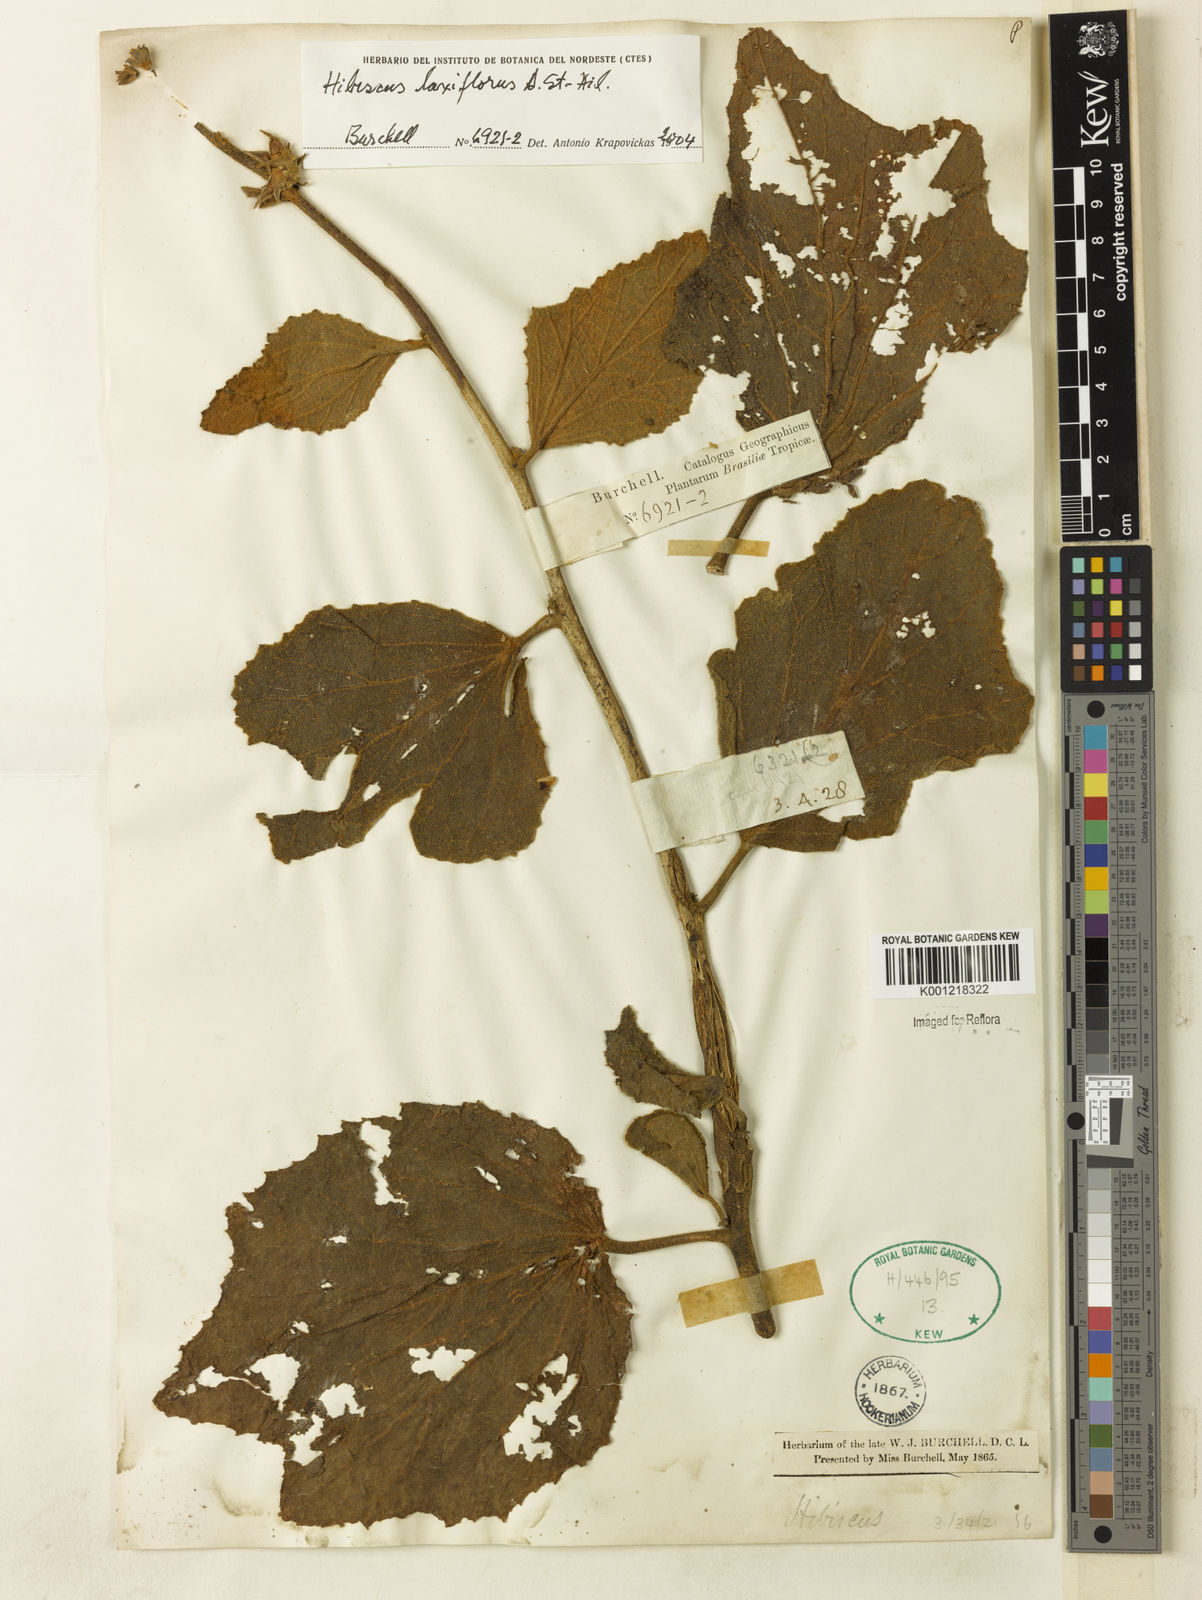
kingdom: Plantae
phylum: Tracheophyta
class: Magnoliopsida
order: Malvales
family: Malvaceae
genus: Hibiscus
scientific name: Hibiscus wilsonii
